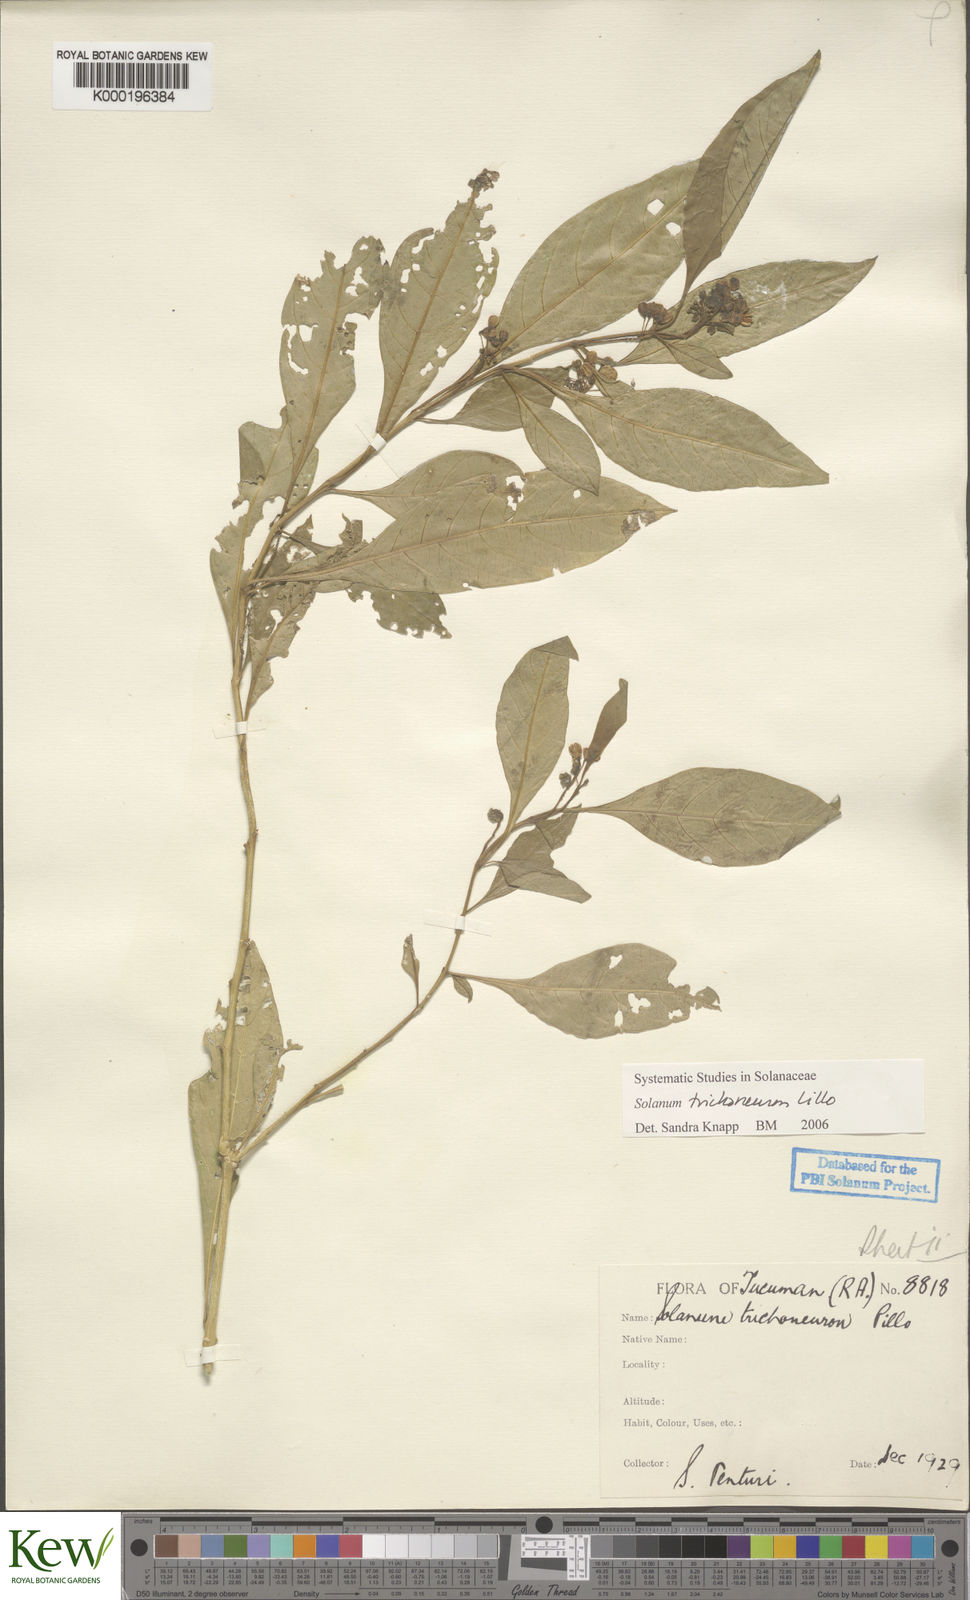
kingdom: Plantae
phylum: Tracheophyta
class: Magnoliopsida
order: Solanales
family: Solanaceae
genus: Solanum
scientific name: Solanum oblongum
